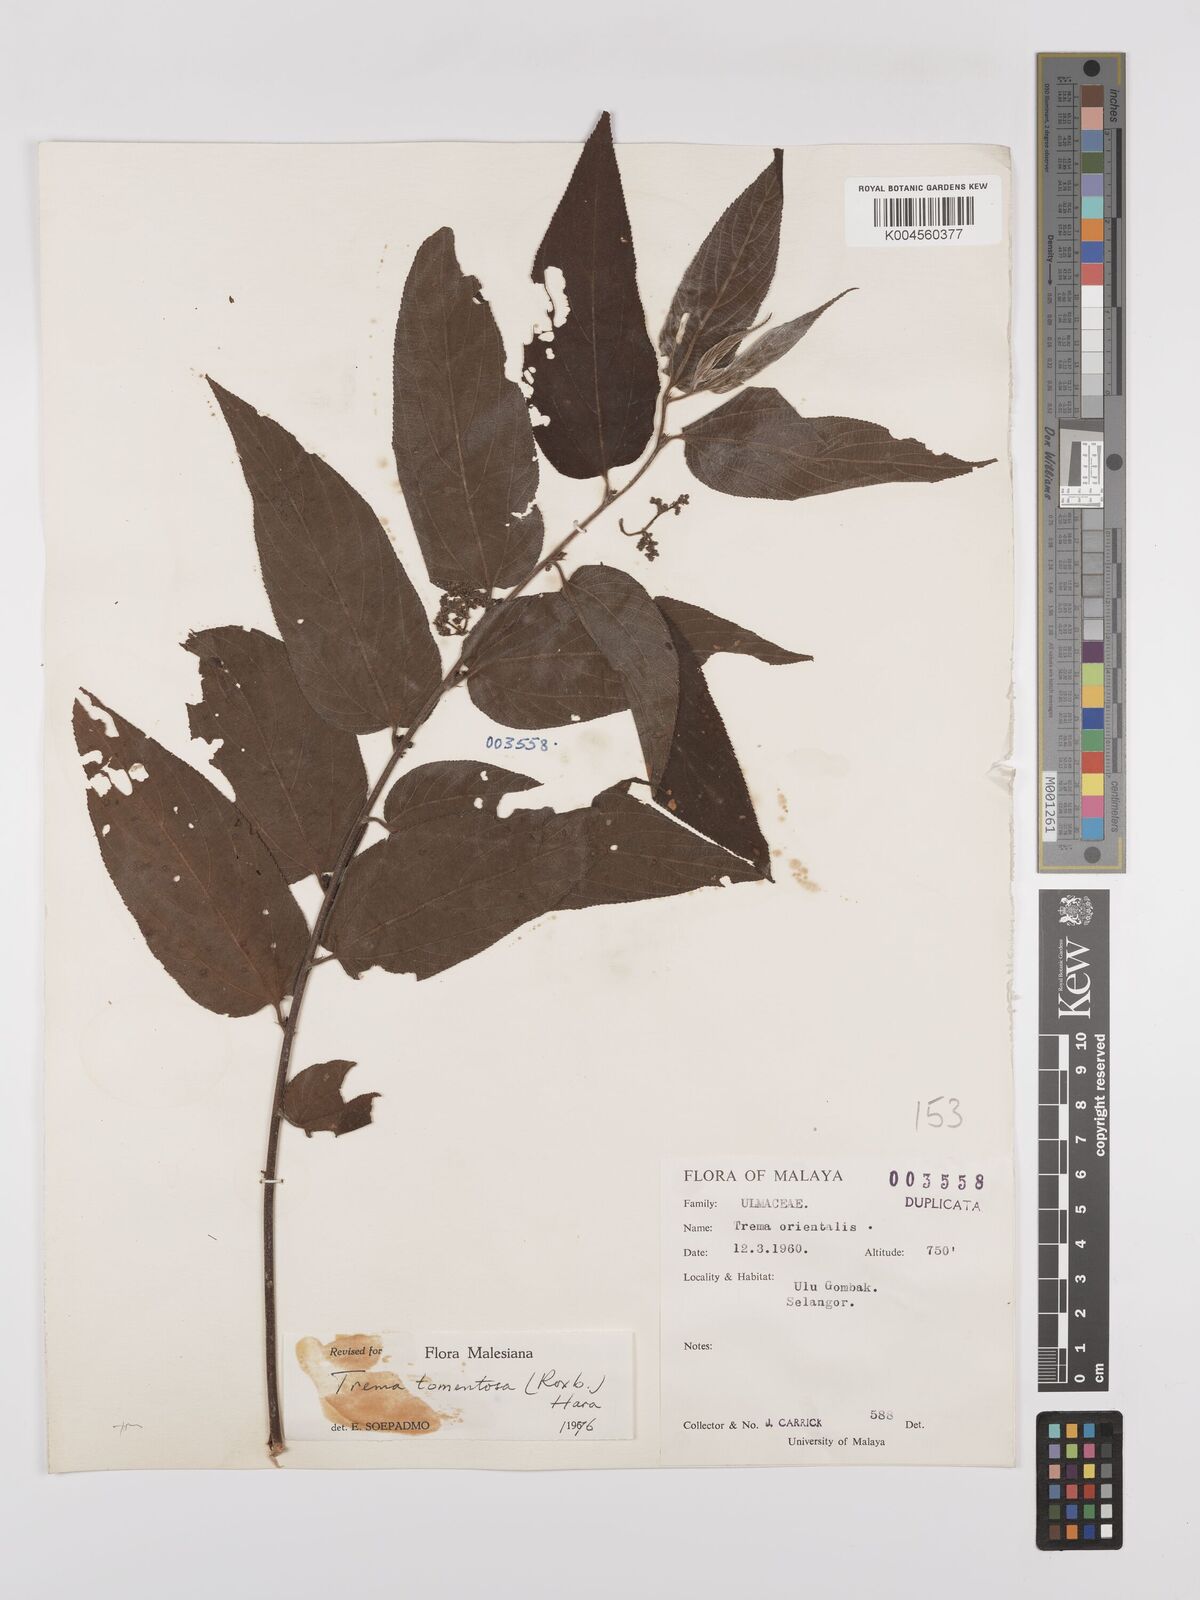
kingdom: Plantae
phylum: Tracheophyta
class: Magnoliopsida
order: Rosales
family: Cannabaceae
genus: Trema
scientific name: Trema tomentosum
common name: Peach-leaf-poisonbush
